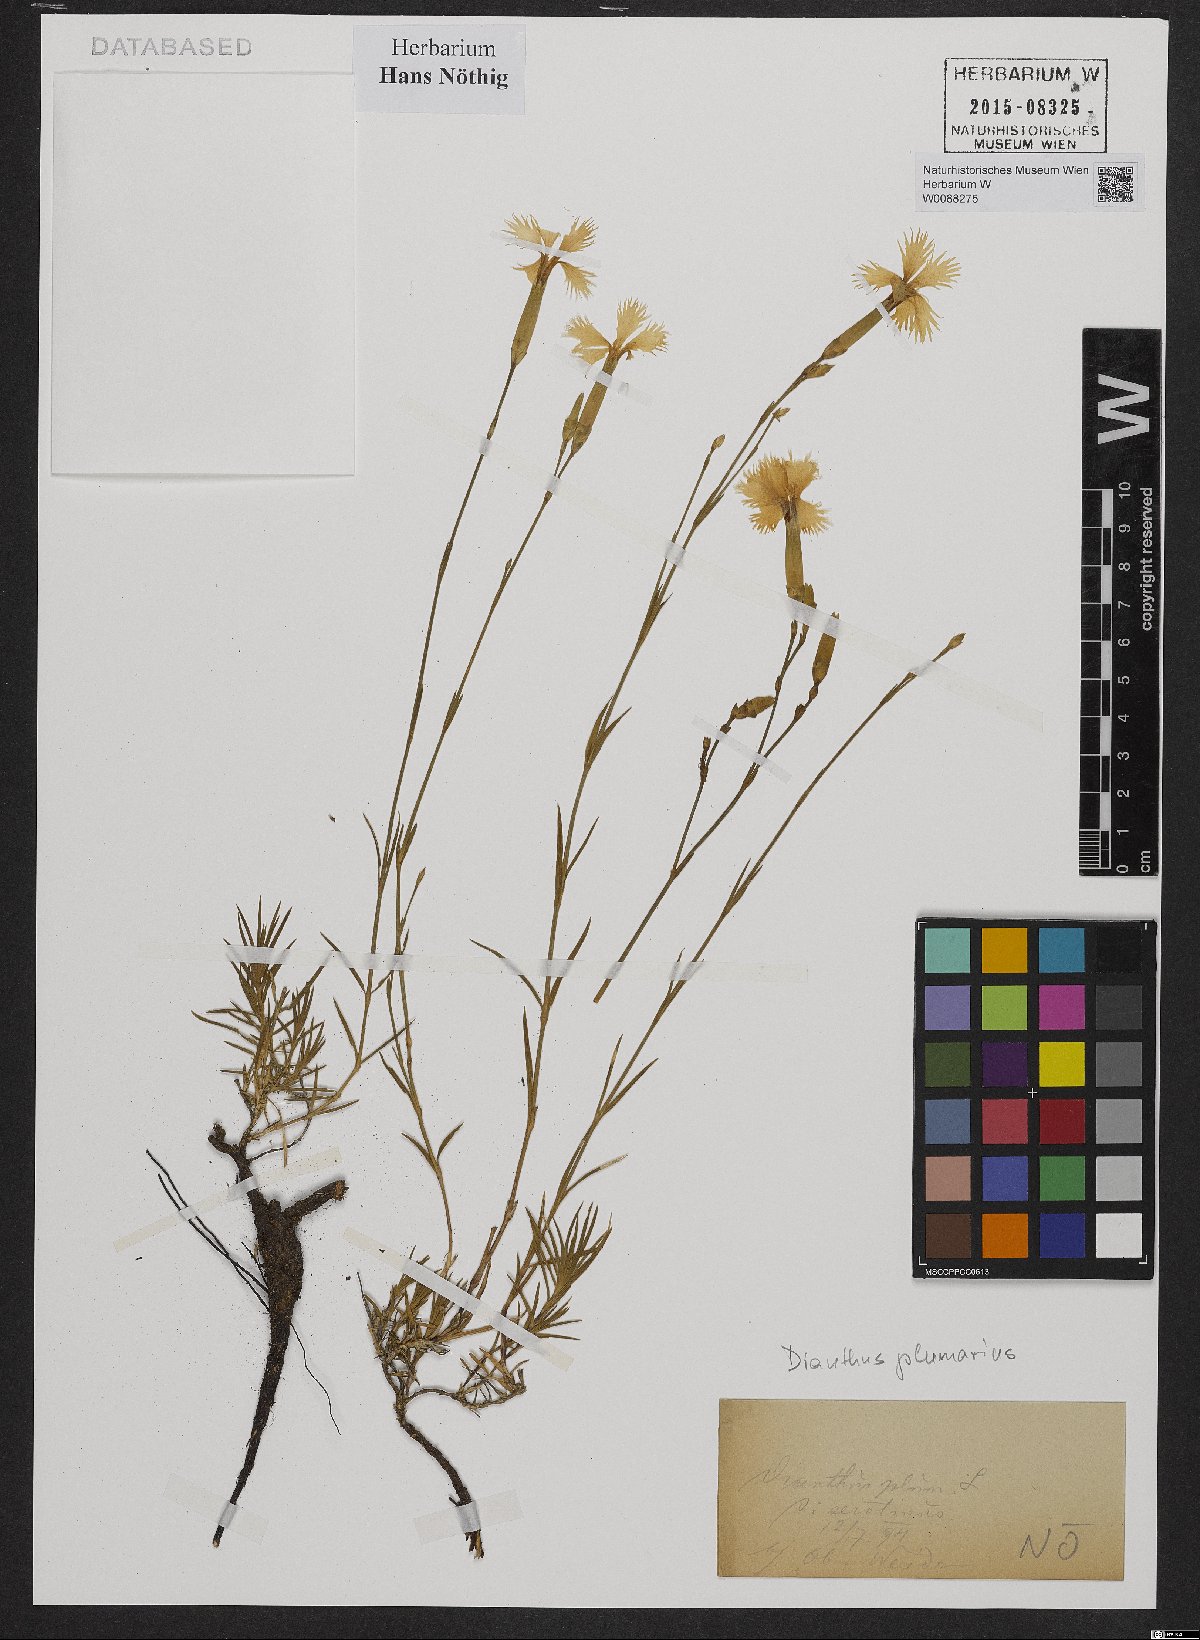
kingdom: Plantae
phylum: Tracheophyta
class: Magnoliopsida
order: Caryophyllales
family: Caryophyllaceae
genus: Dianthus
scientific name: Dianthus plumarius
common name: Pink
